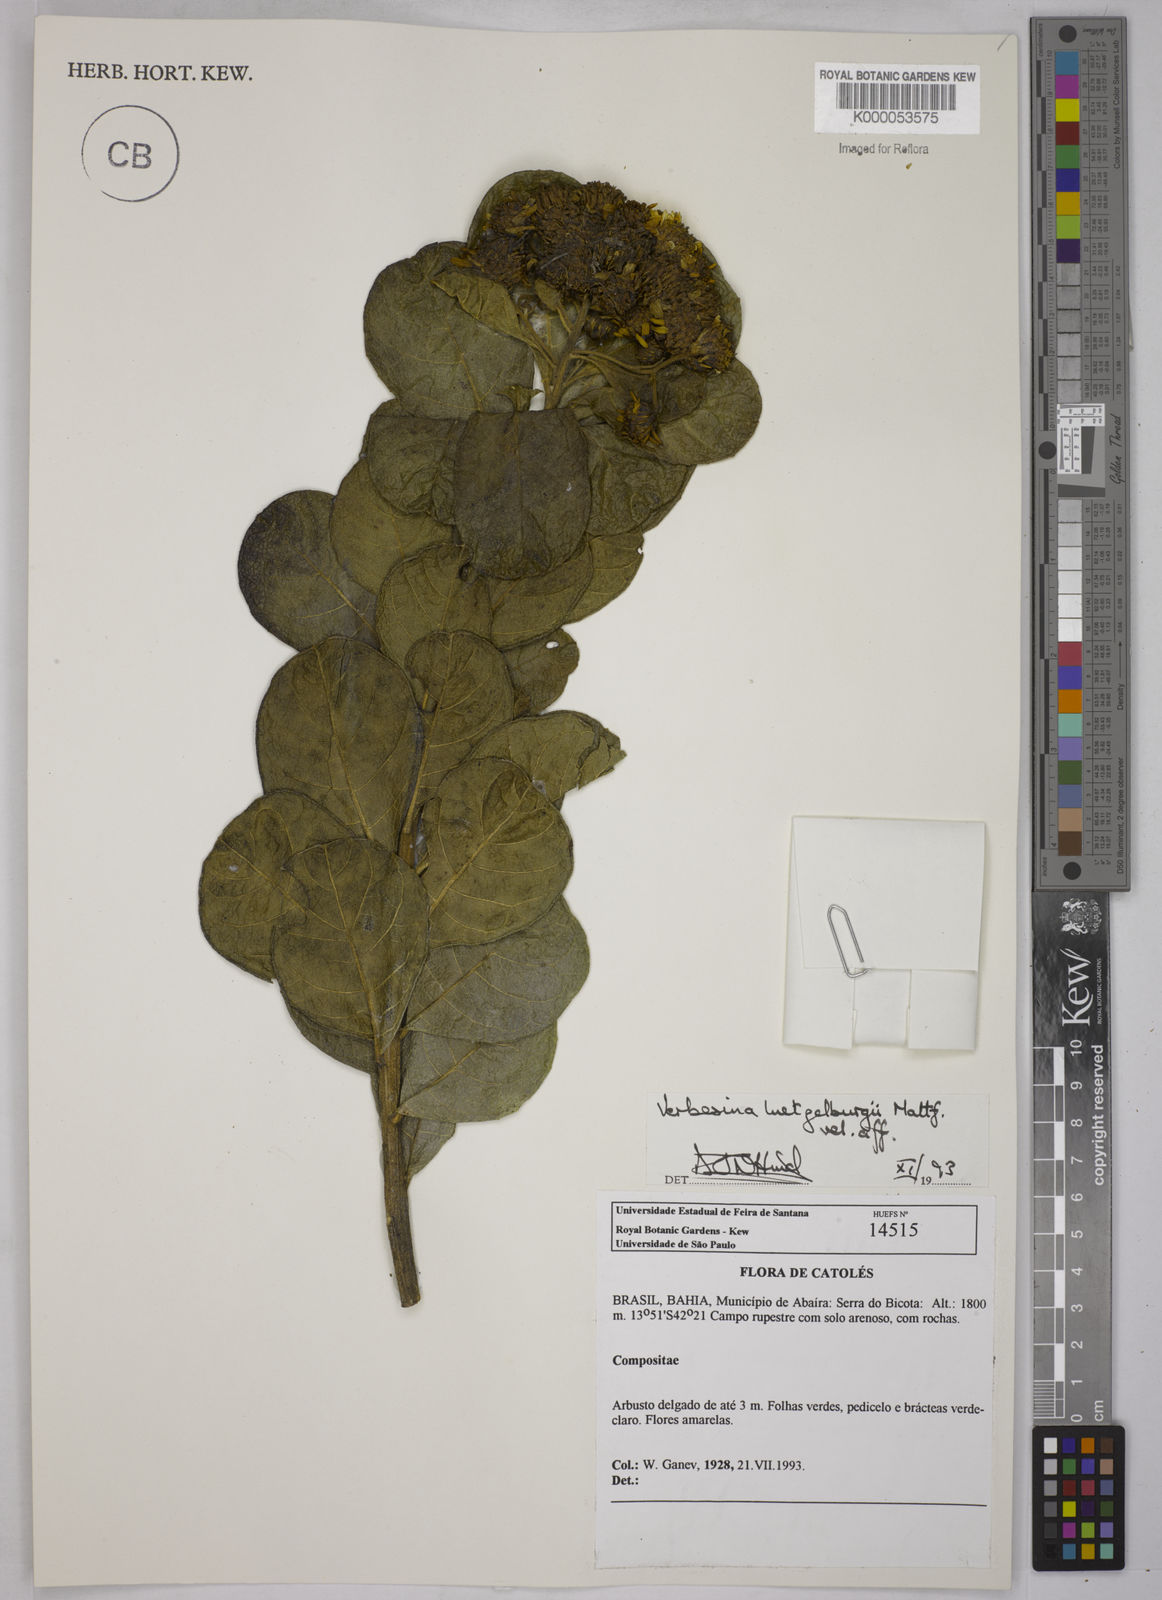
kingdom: Plantae
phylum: Tracheophyta
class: Magnoliopsida
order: Asterales
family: Asteraceae
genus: Verbesina
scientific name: Verbesina luetzelburgii
